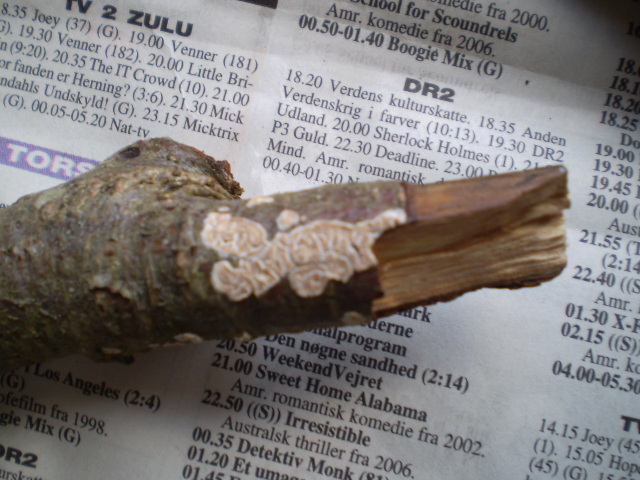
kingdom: Fungi
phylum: Basidiomycota
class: Agaricomycetes
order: Agaricales
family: Physalacriaceae
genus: Cylindrobasidium
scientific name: Cylindrobasidium evolvens
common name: sprækkehinde
